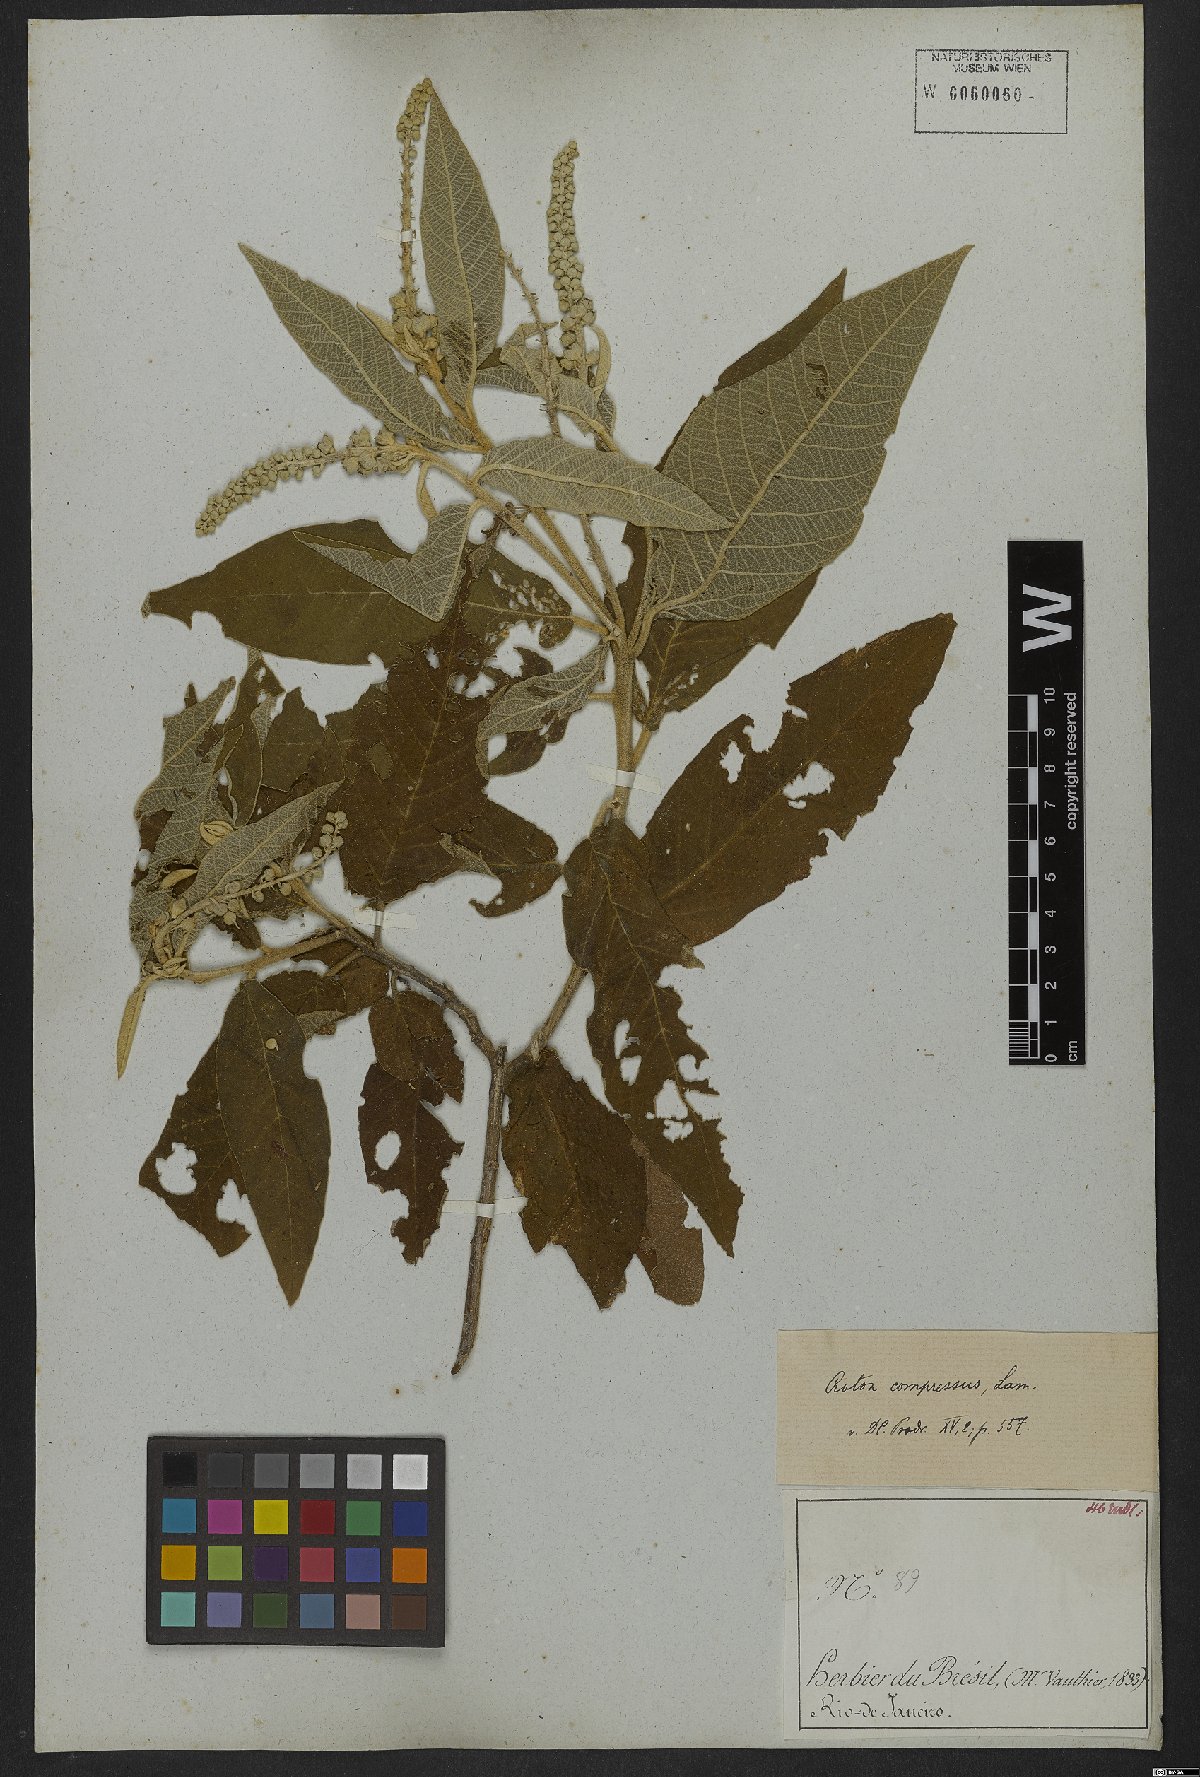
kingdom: Plantae
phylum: Tracheophyta
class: Magnoliopsida
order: Malpighiales
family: Euphorbiaceae
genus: Croton
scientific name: Croton compressus
